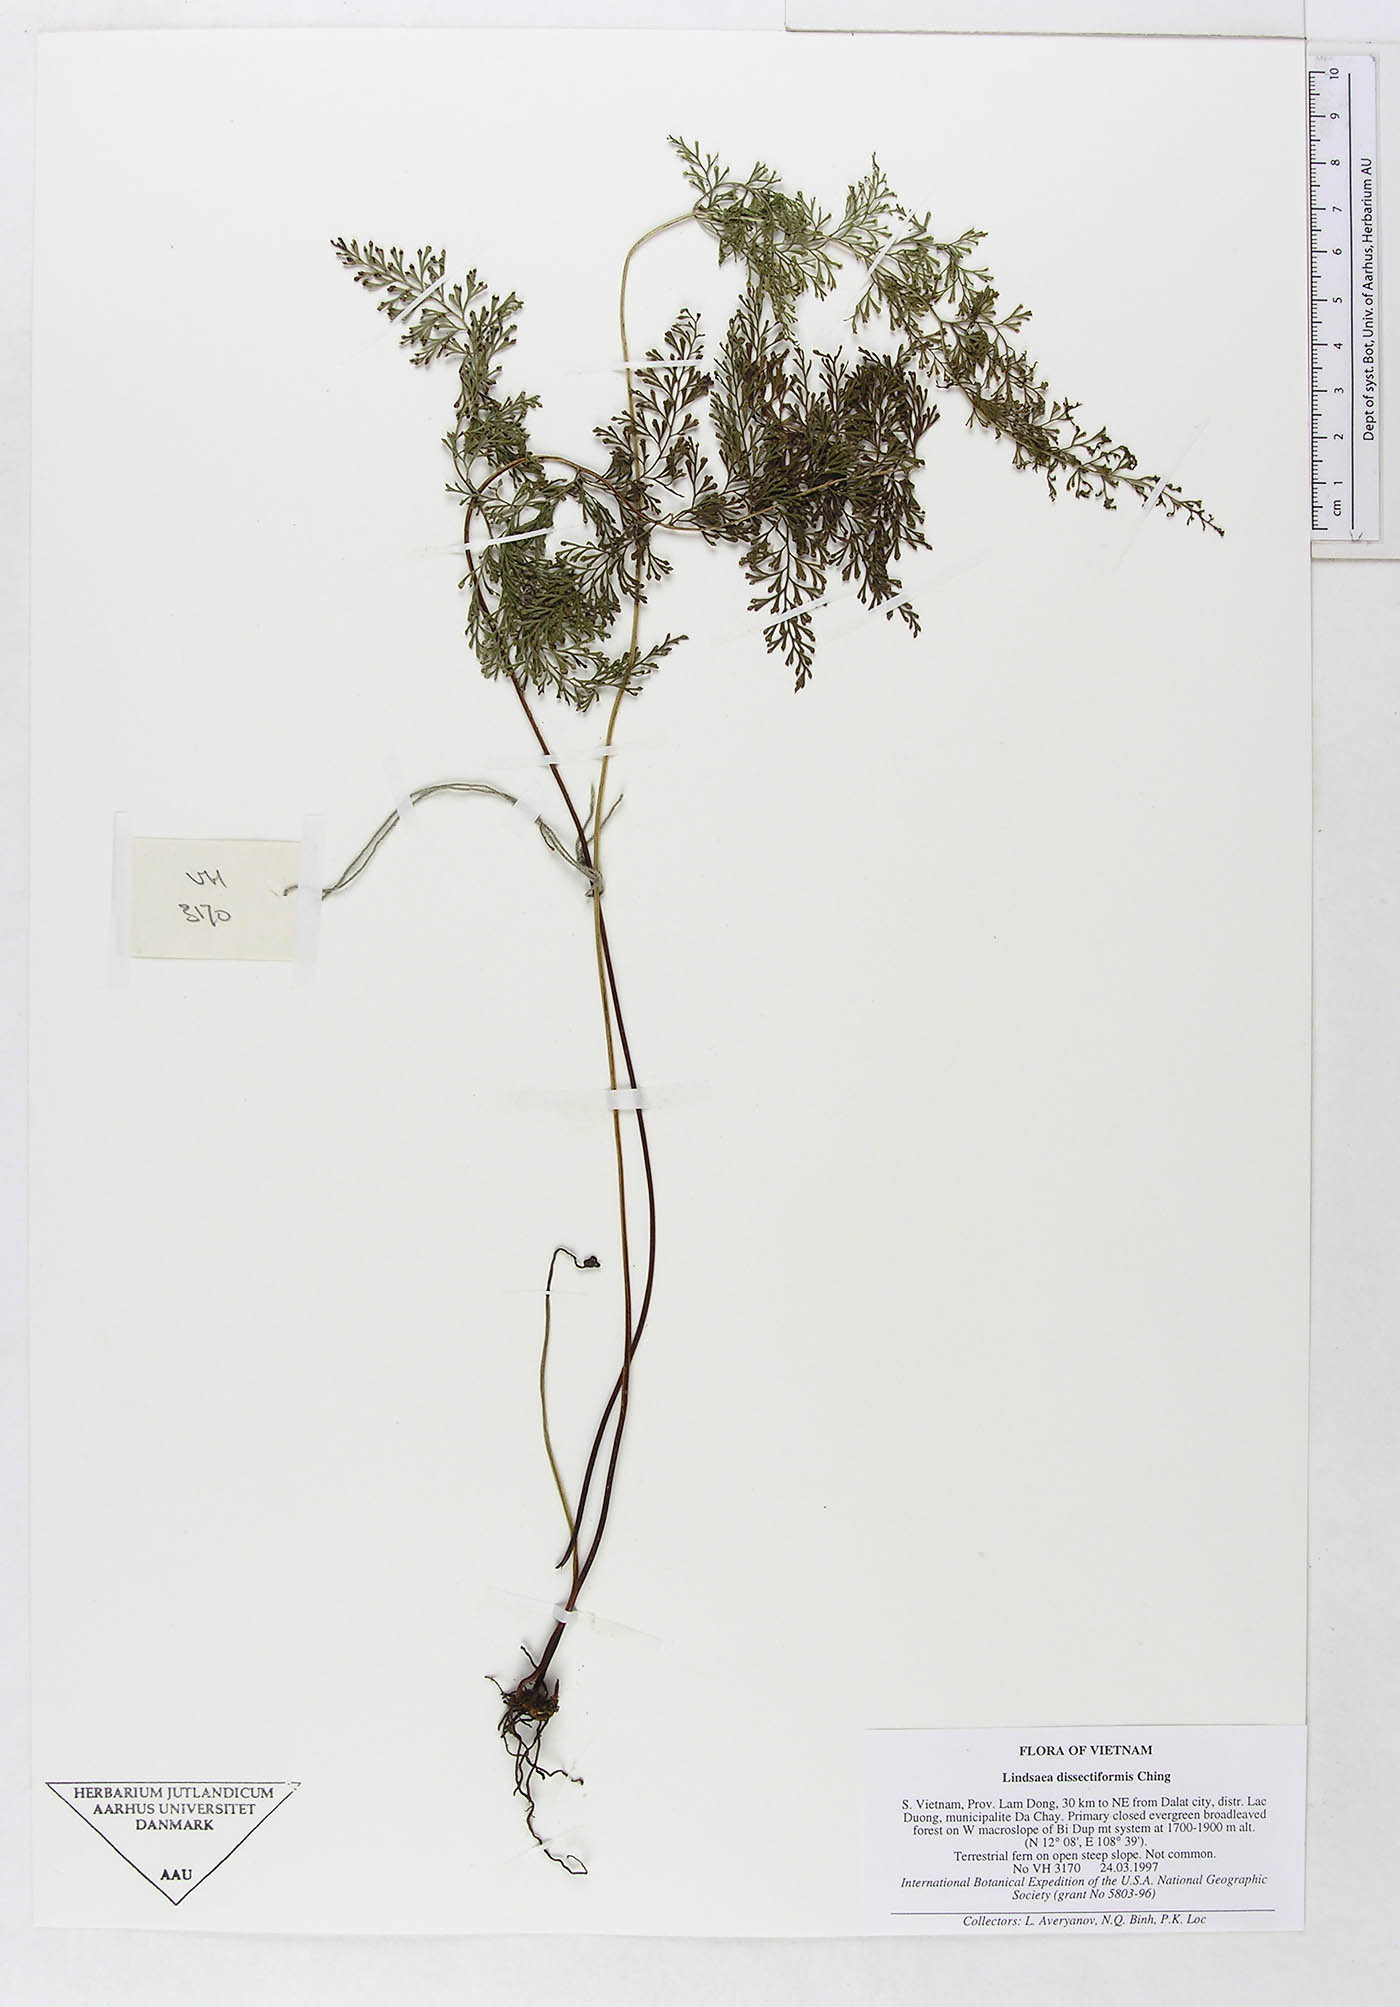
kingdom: Plantae
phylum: Tracheophyta
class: Polypodiopsida
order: Polypodiales
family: Dennstaedtiaceae
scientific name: Dennstaedtiaceae
